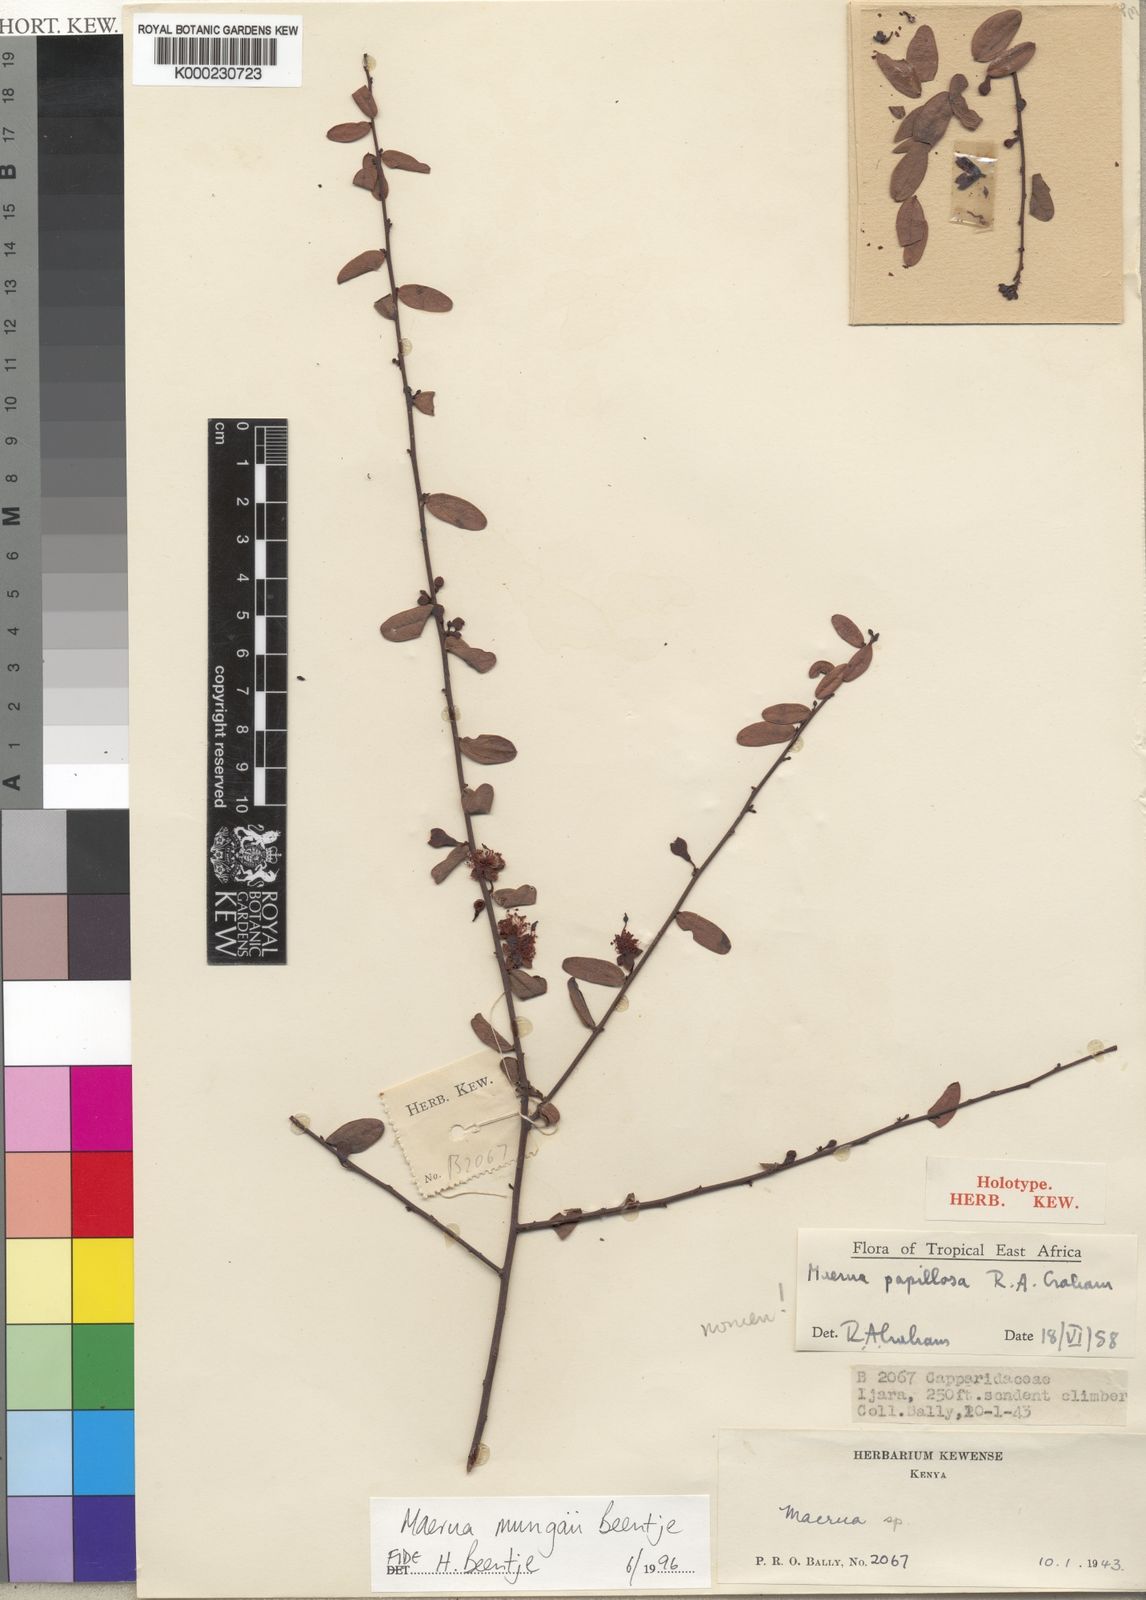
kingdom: Plantae
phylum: Tracheophyta
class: Magnoliopsida
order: Brassicales
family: Capparaceae
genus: Maerua
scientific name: Maerua mungaii
